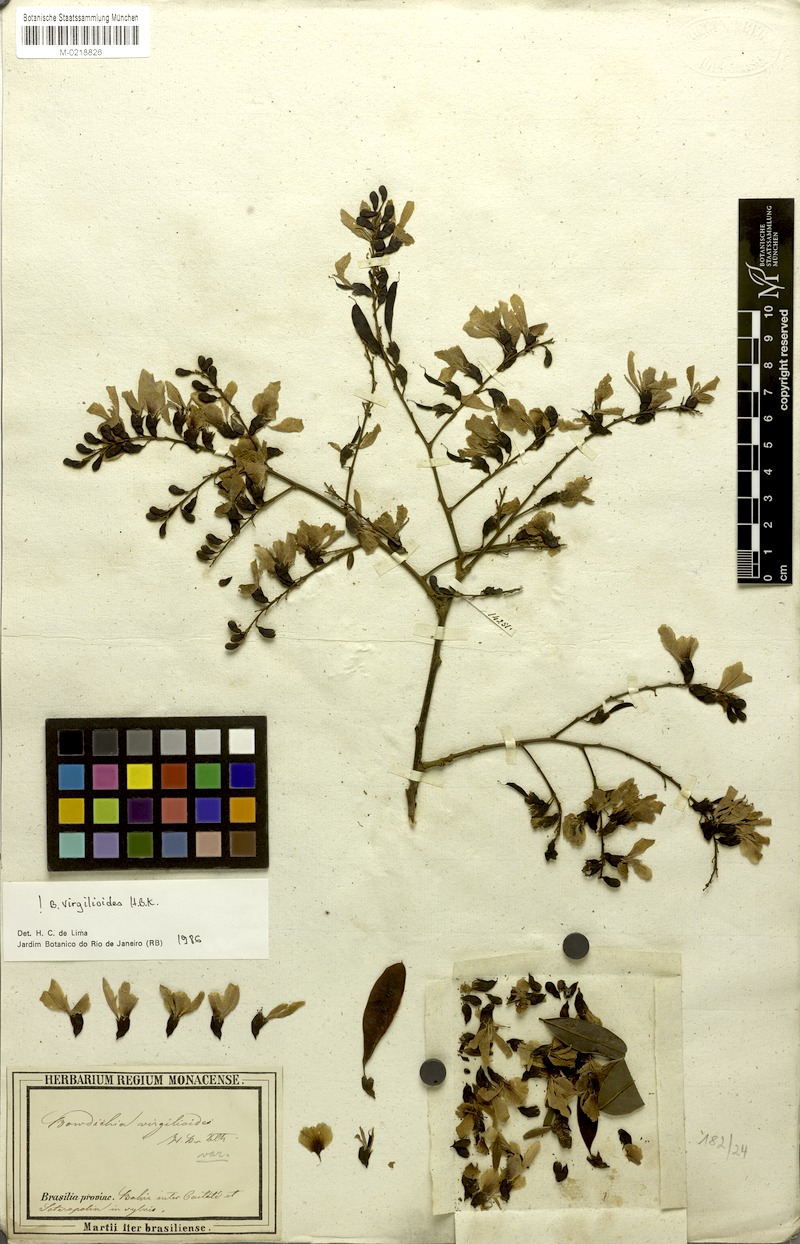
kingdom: Plantae
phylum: Tracheophyta
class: Magnoliopsida
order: Fabales
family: Fabaceae
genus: Bowdichia
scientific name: Bowdichia virgilioides
